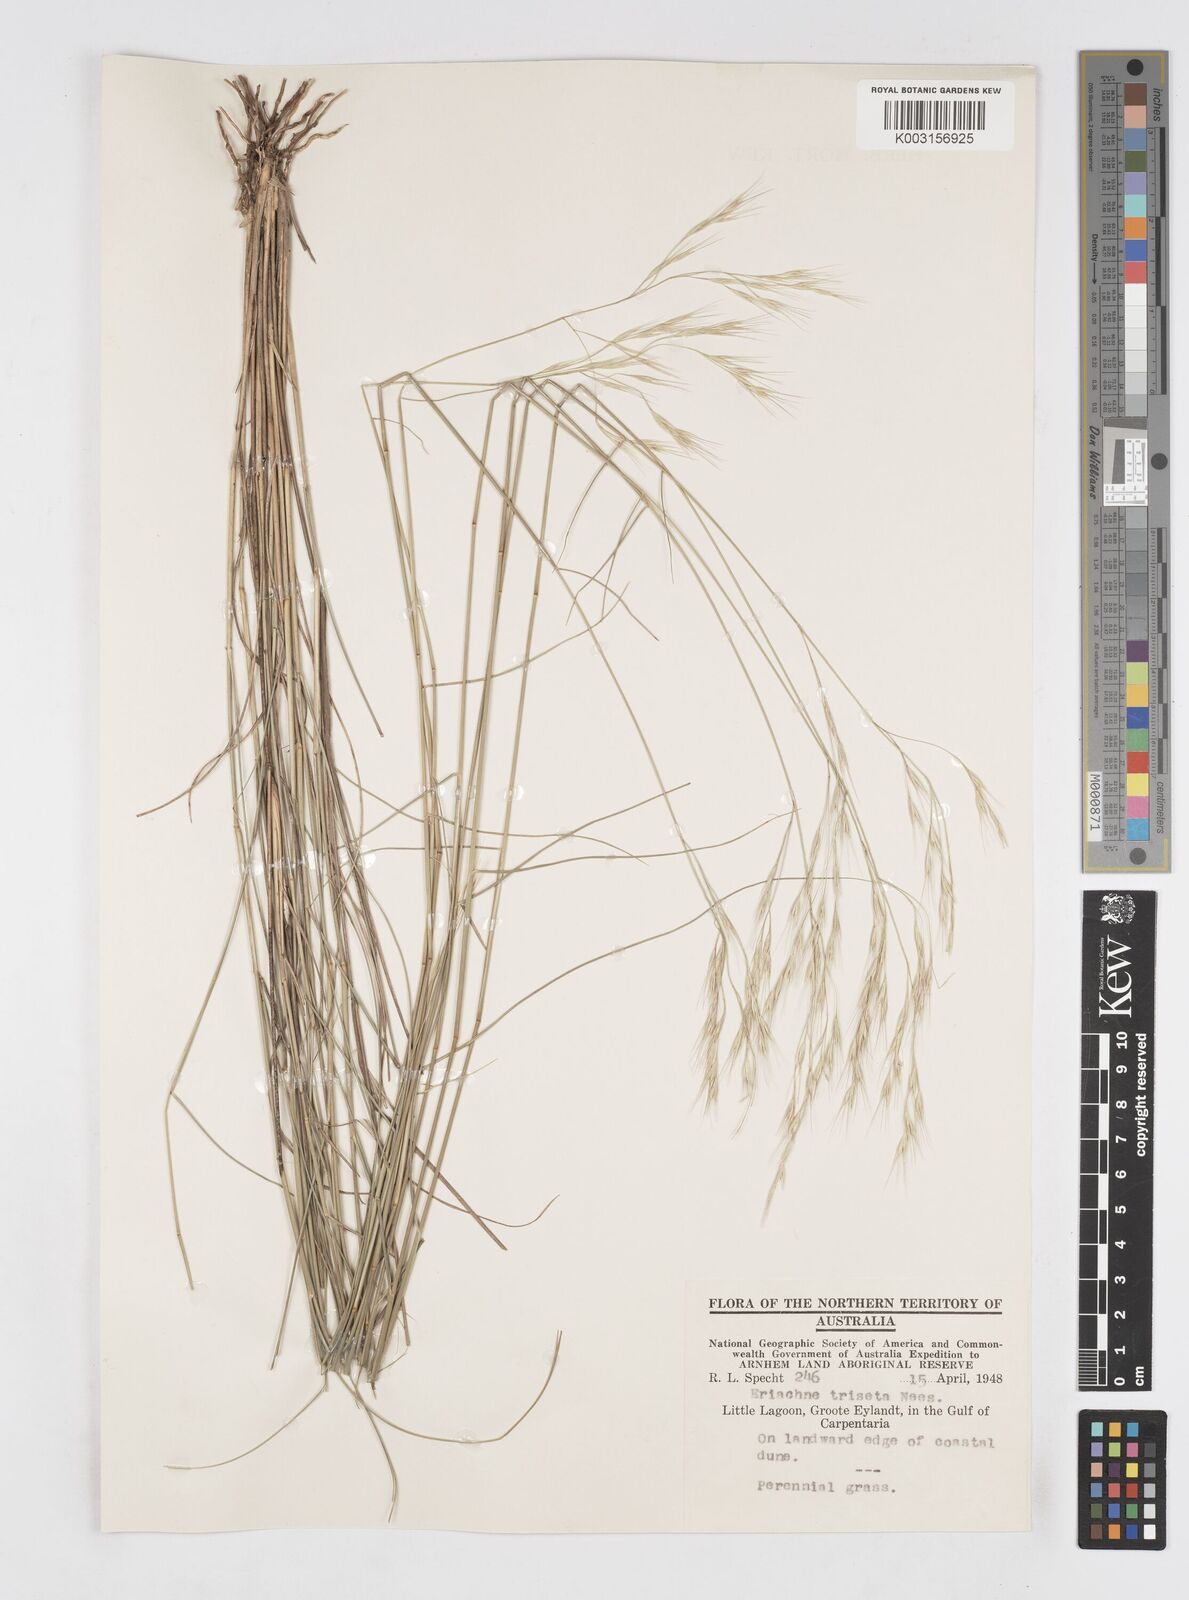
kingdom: Plantae
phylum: Tracheophyta
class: Liliopsida
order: Poales
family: Poaceae
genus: Eriachne
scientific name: Eriachne triseta
